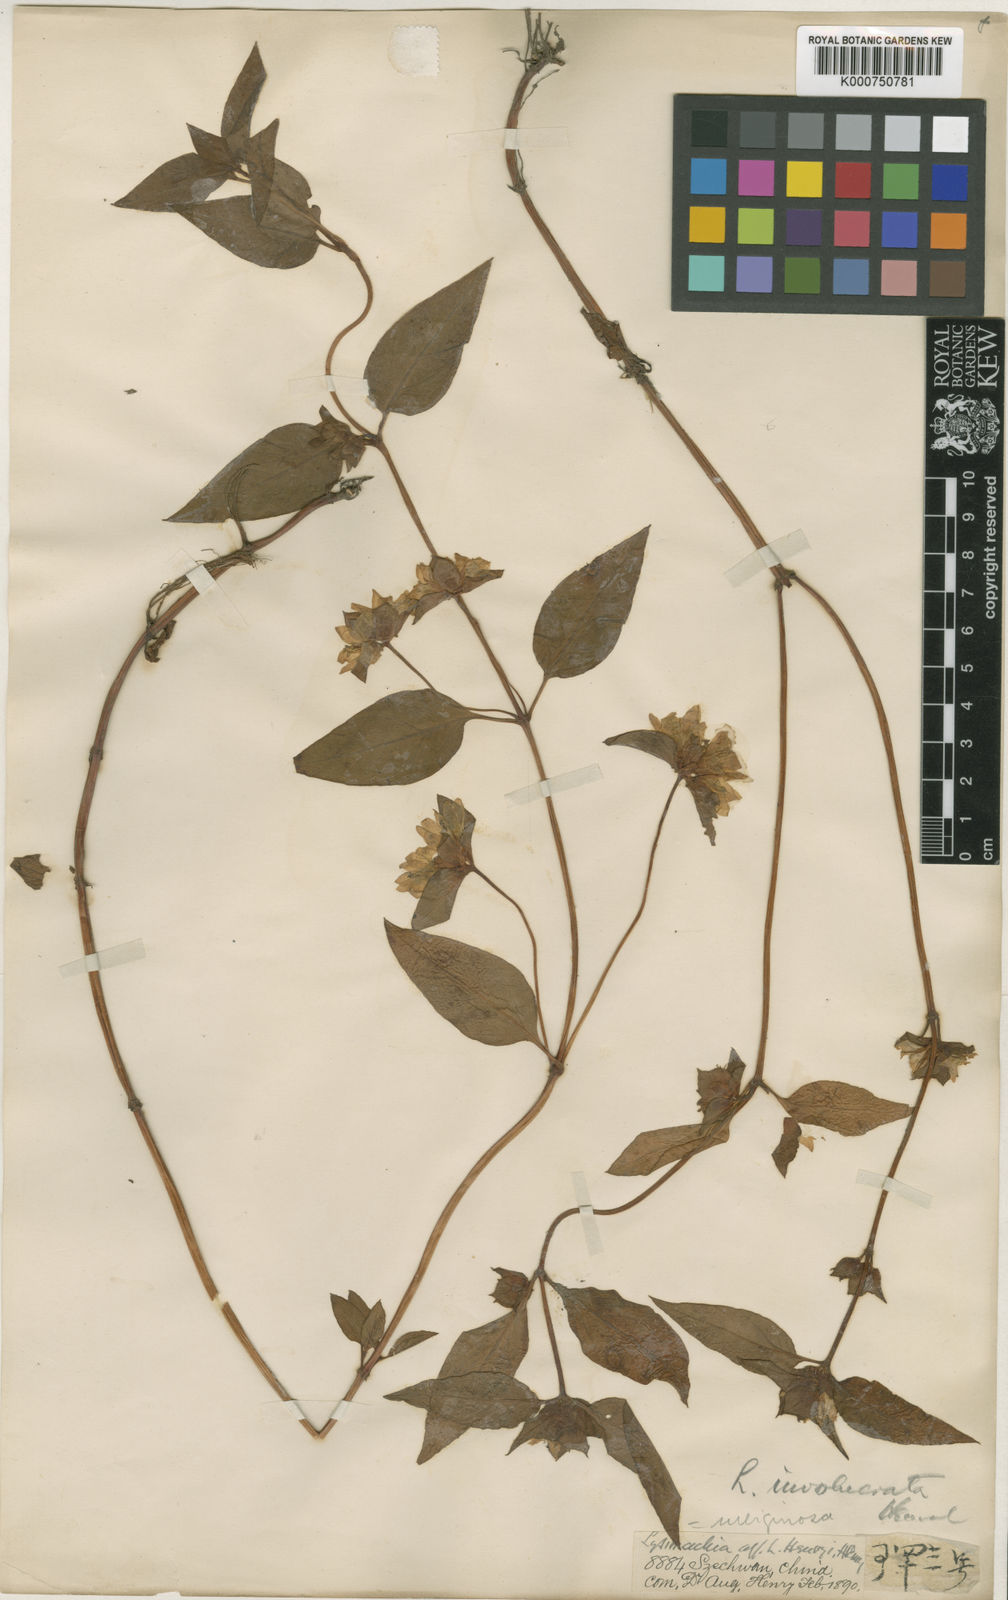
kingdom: Plantae
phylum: Tracheophyta
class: Magnoliopsida
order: Ericales
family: Primulaceae
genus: Lysimachia
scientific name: Lysimachia rubiginosa
